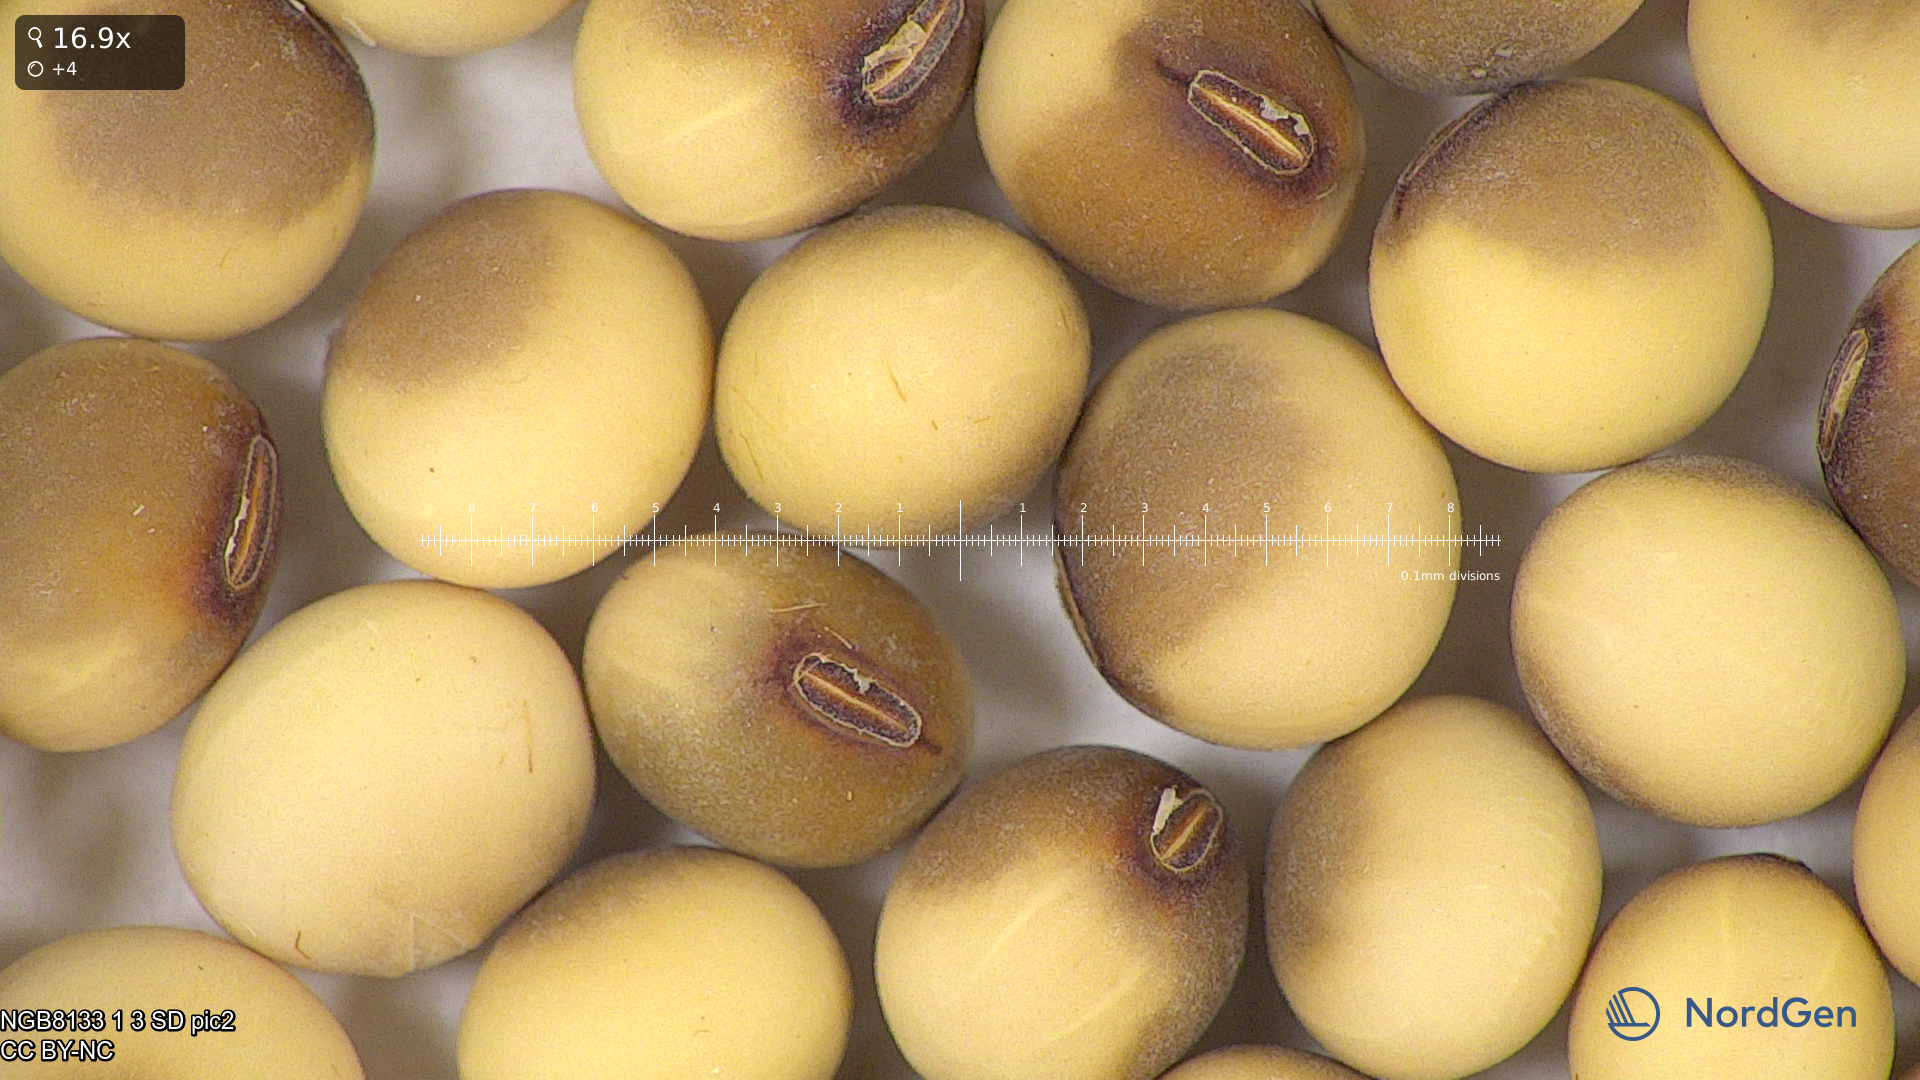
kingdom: Plantae
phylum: Tracheophyta
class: Magnoliopsida
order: Fabales
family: Fabaceae
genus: Glycine
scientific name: Glycine max
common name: Soya-bean
